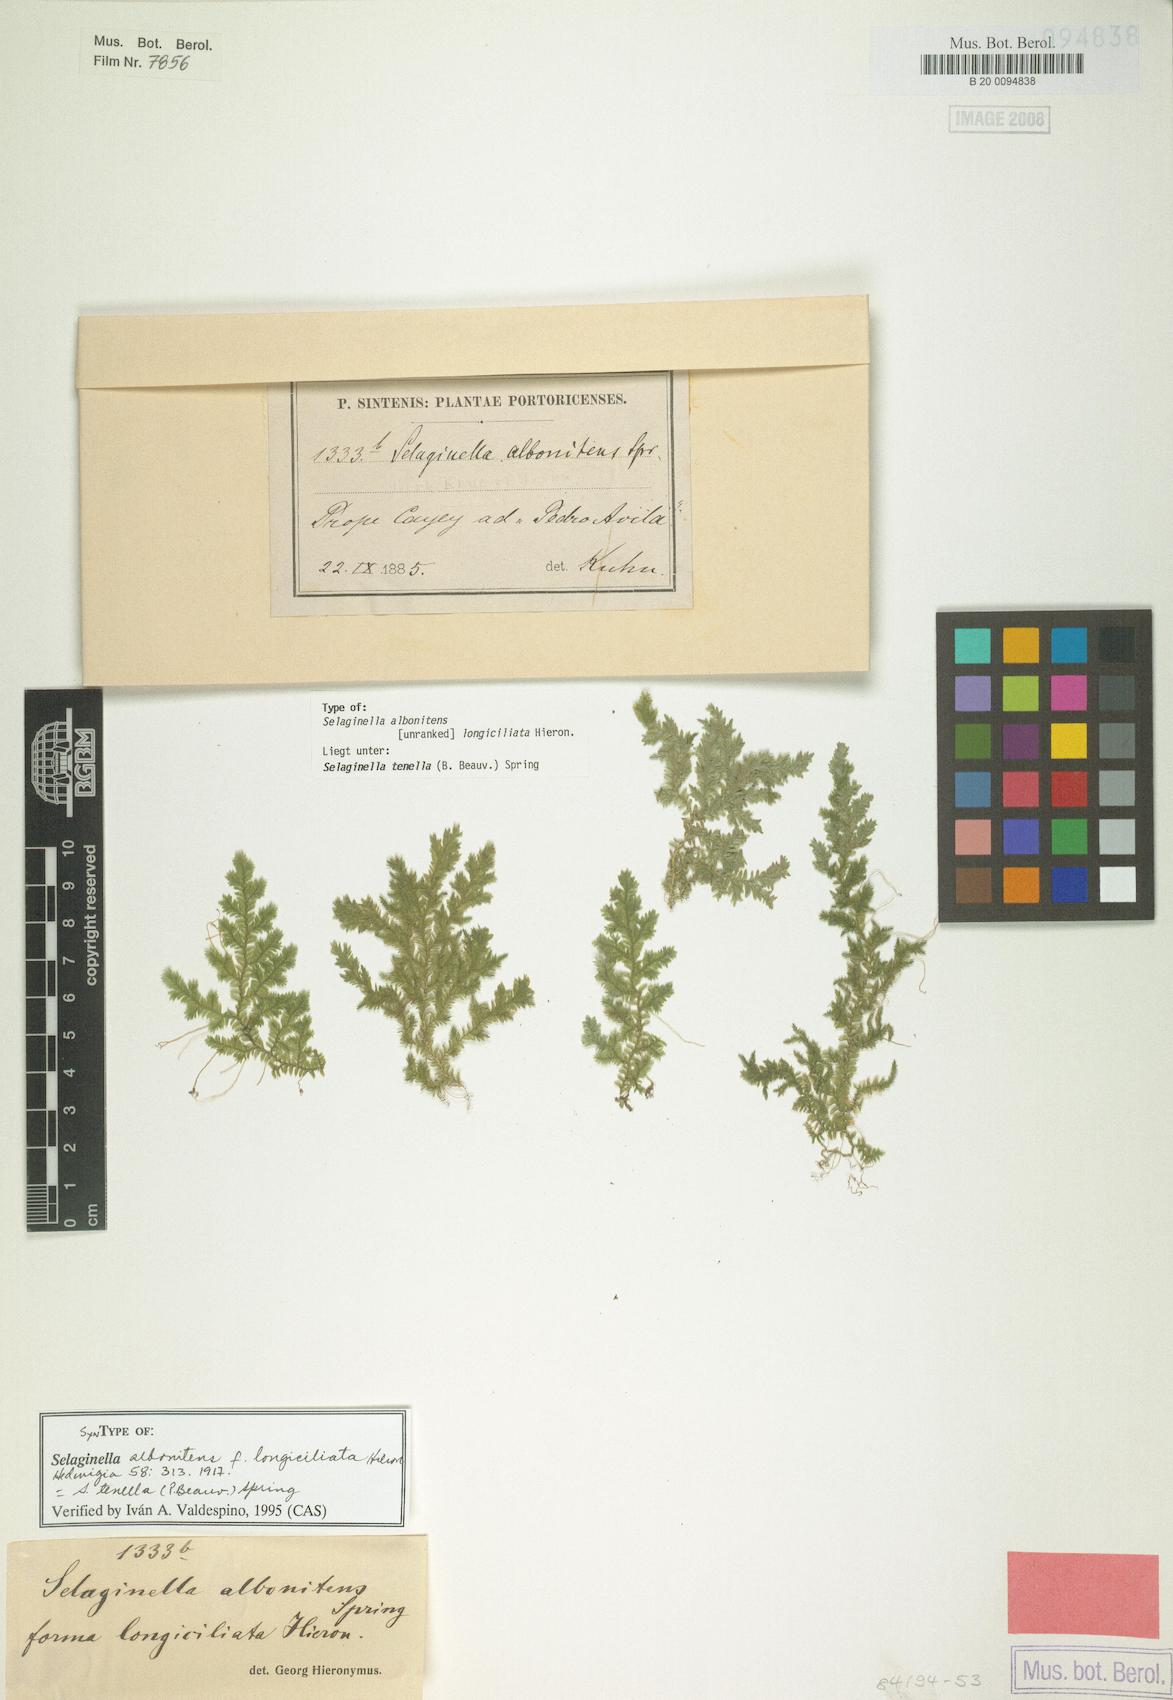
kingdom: Plantae
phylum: Tracheophyta
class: Lycopodiopsida
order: Selaginellales
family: Selaginellaceae
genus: Selaginella
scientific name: Selaginella tenella
